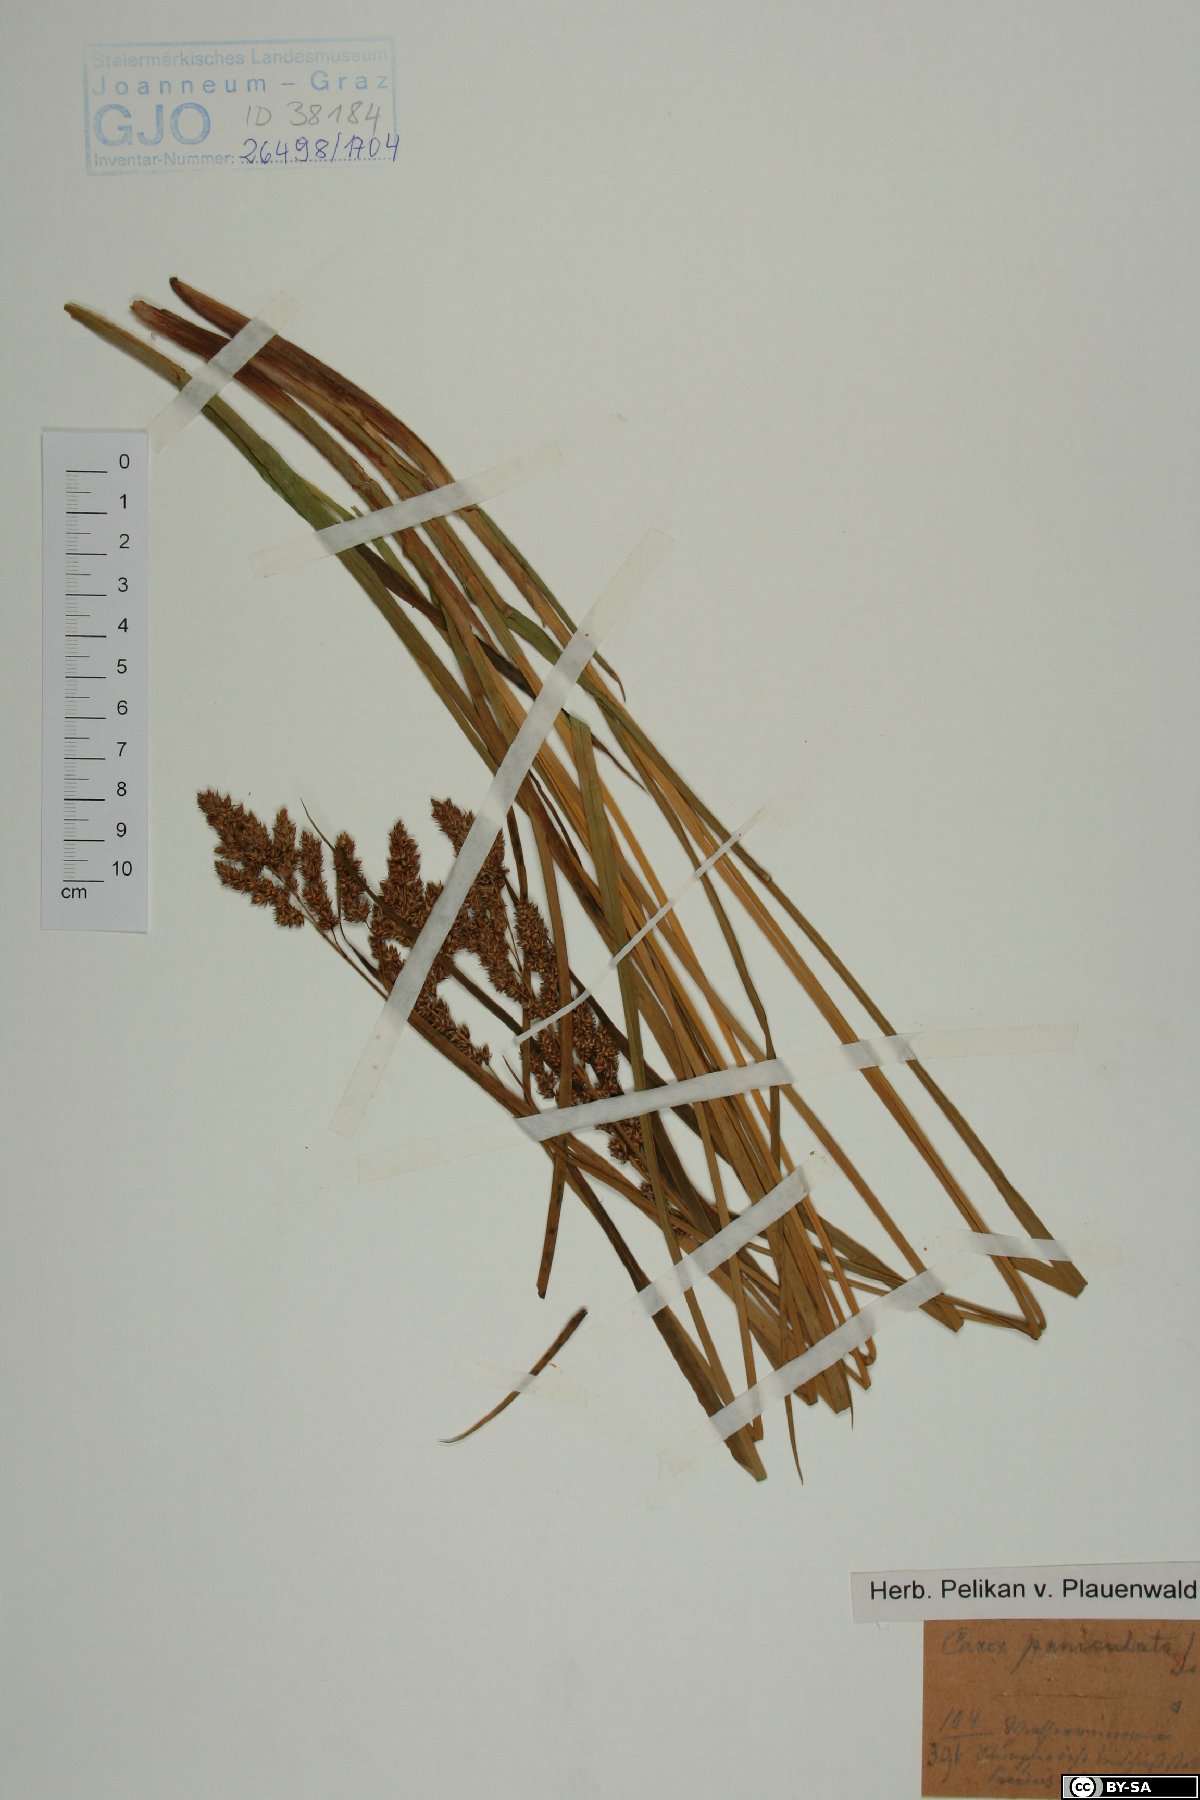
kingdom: Plantae
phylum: Tracheophyta
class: Liliopsida
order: Poales
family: Cyperaceae
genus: Carex
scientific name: Carex paniculata
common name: Greater tussock-sedge
